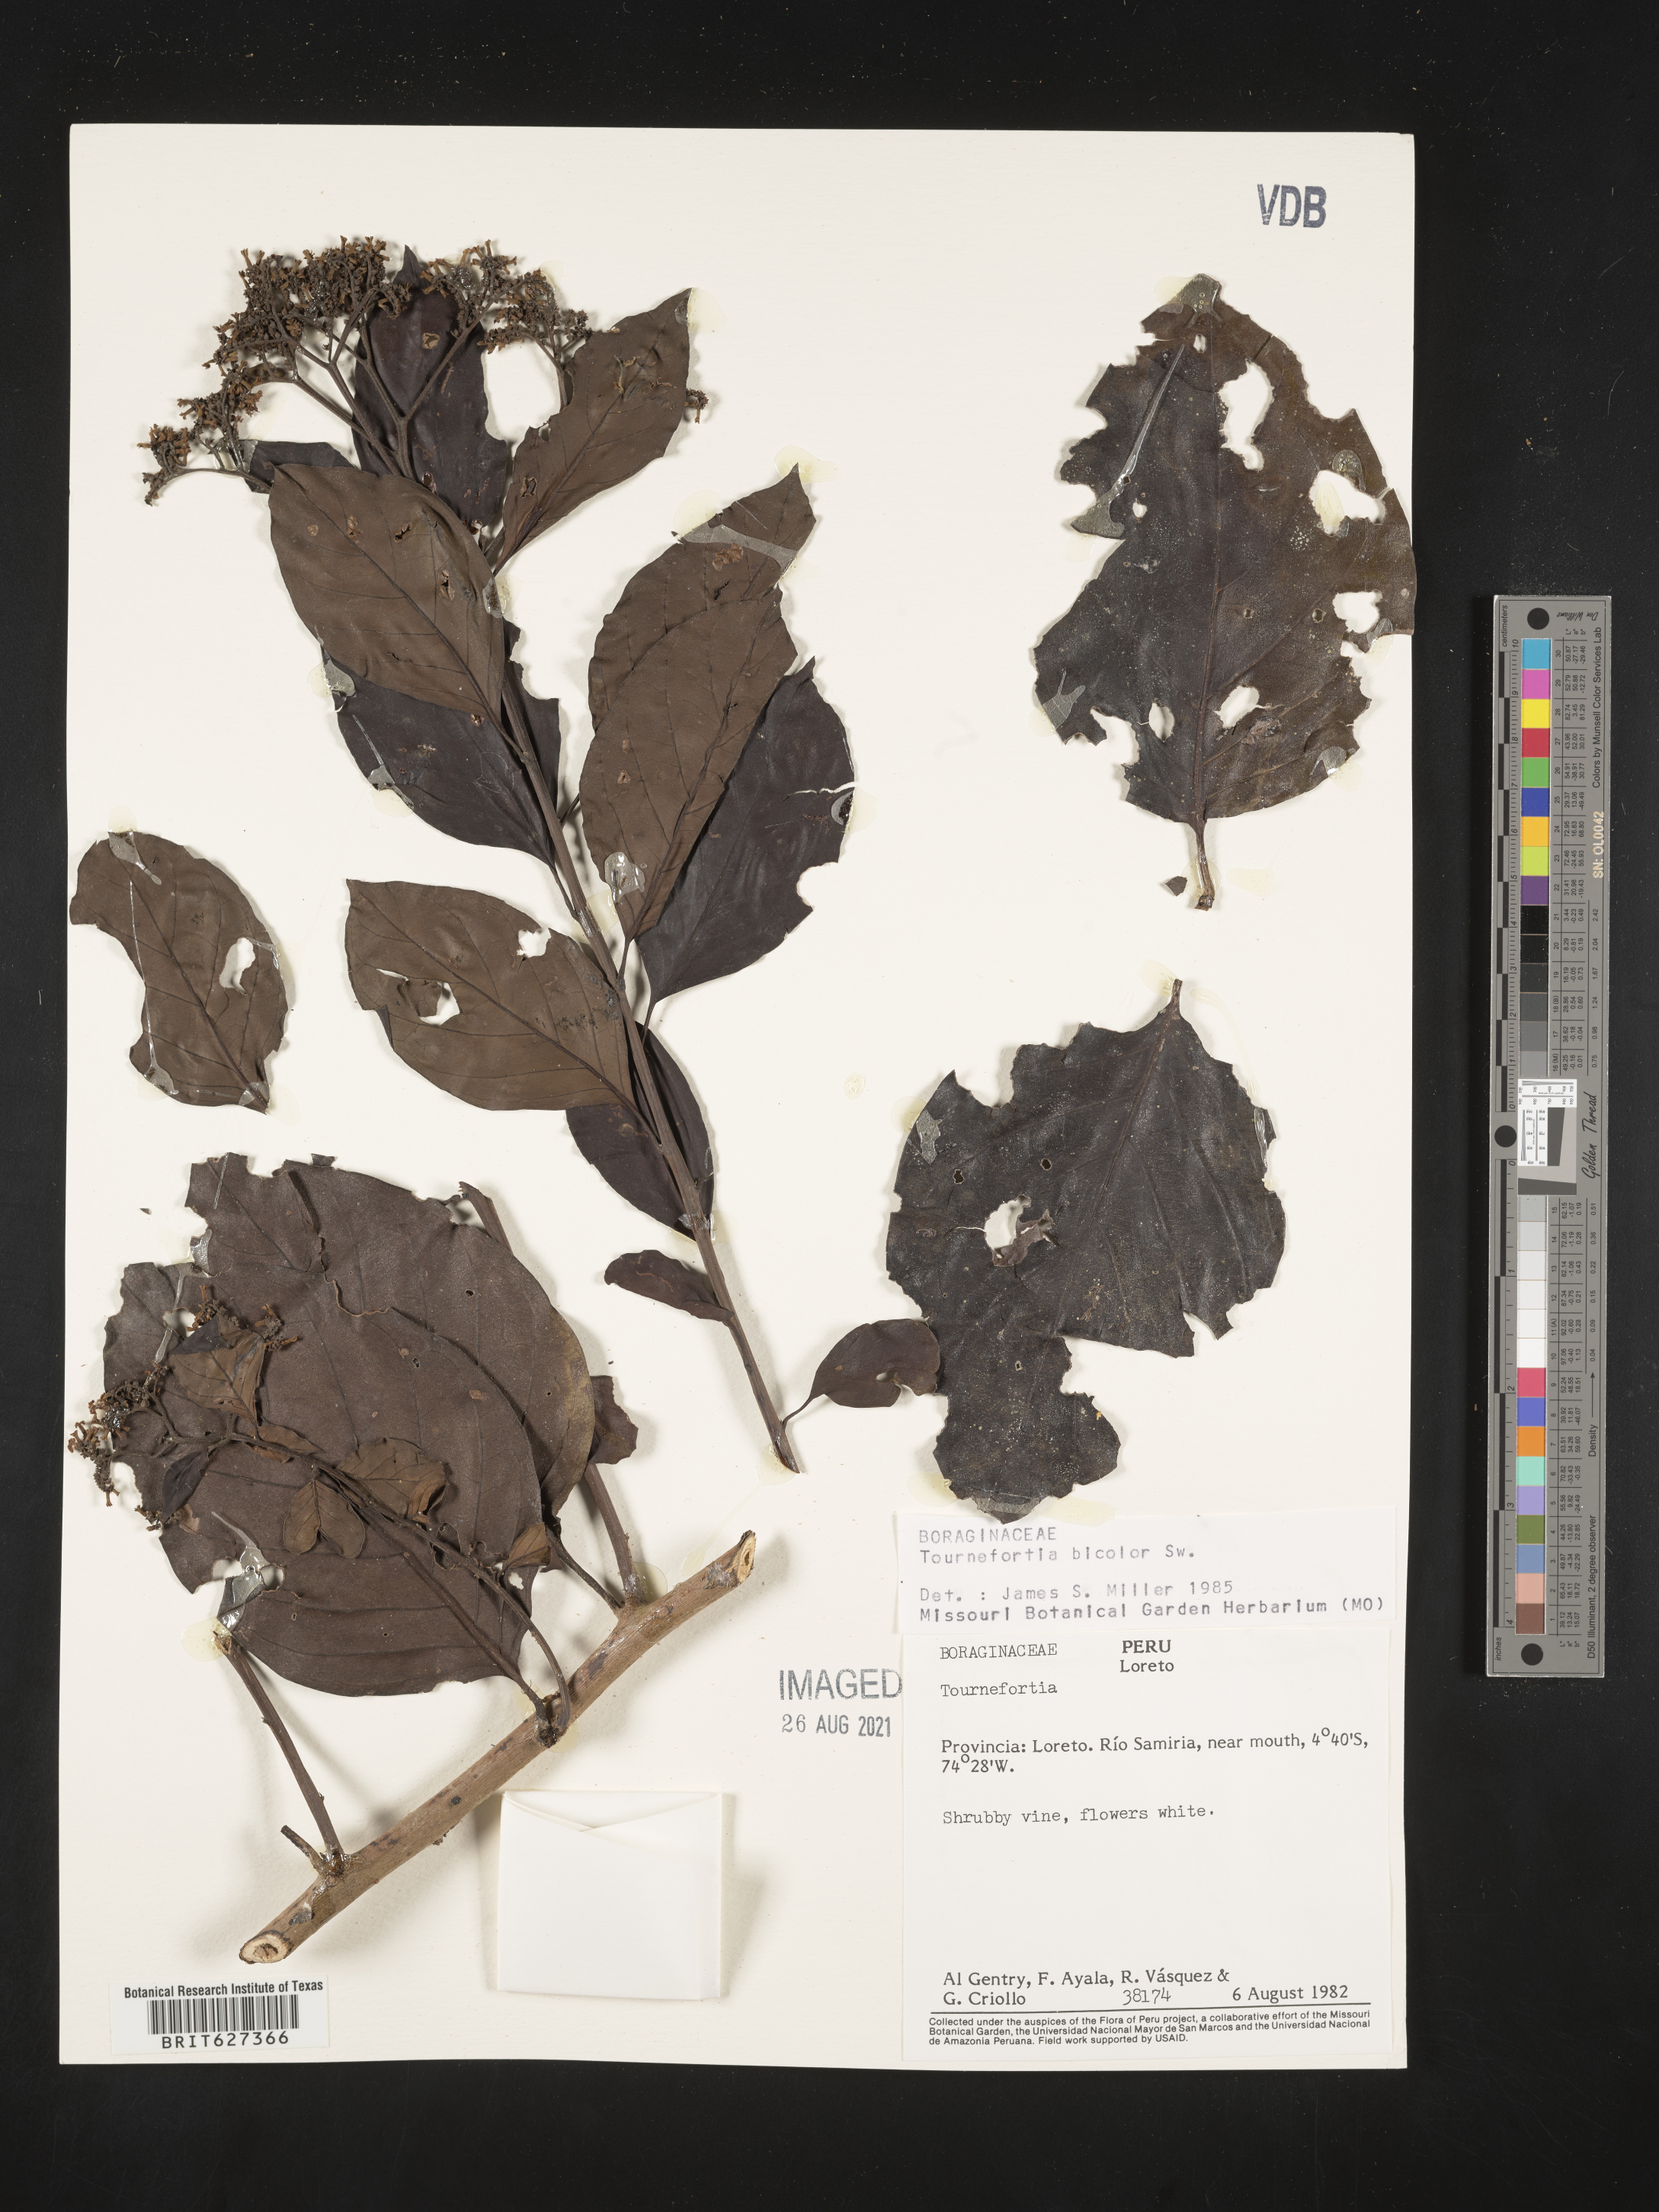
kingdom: Plantae
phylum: Tracheophyta
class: Magnoliopsida
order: Boraginales
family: Heliotropiaceae
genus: Heliotropium
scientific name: Heliotropium verdcourtii
